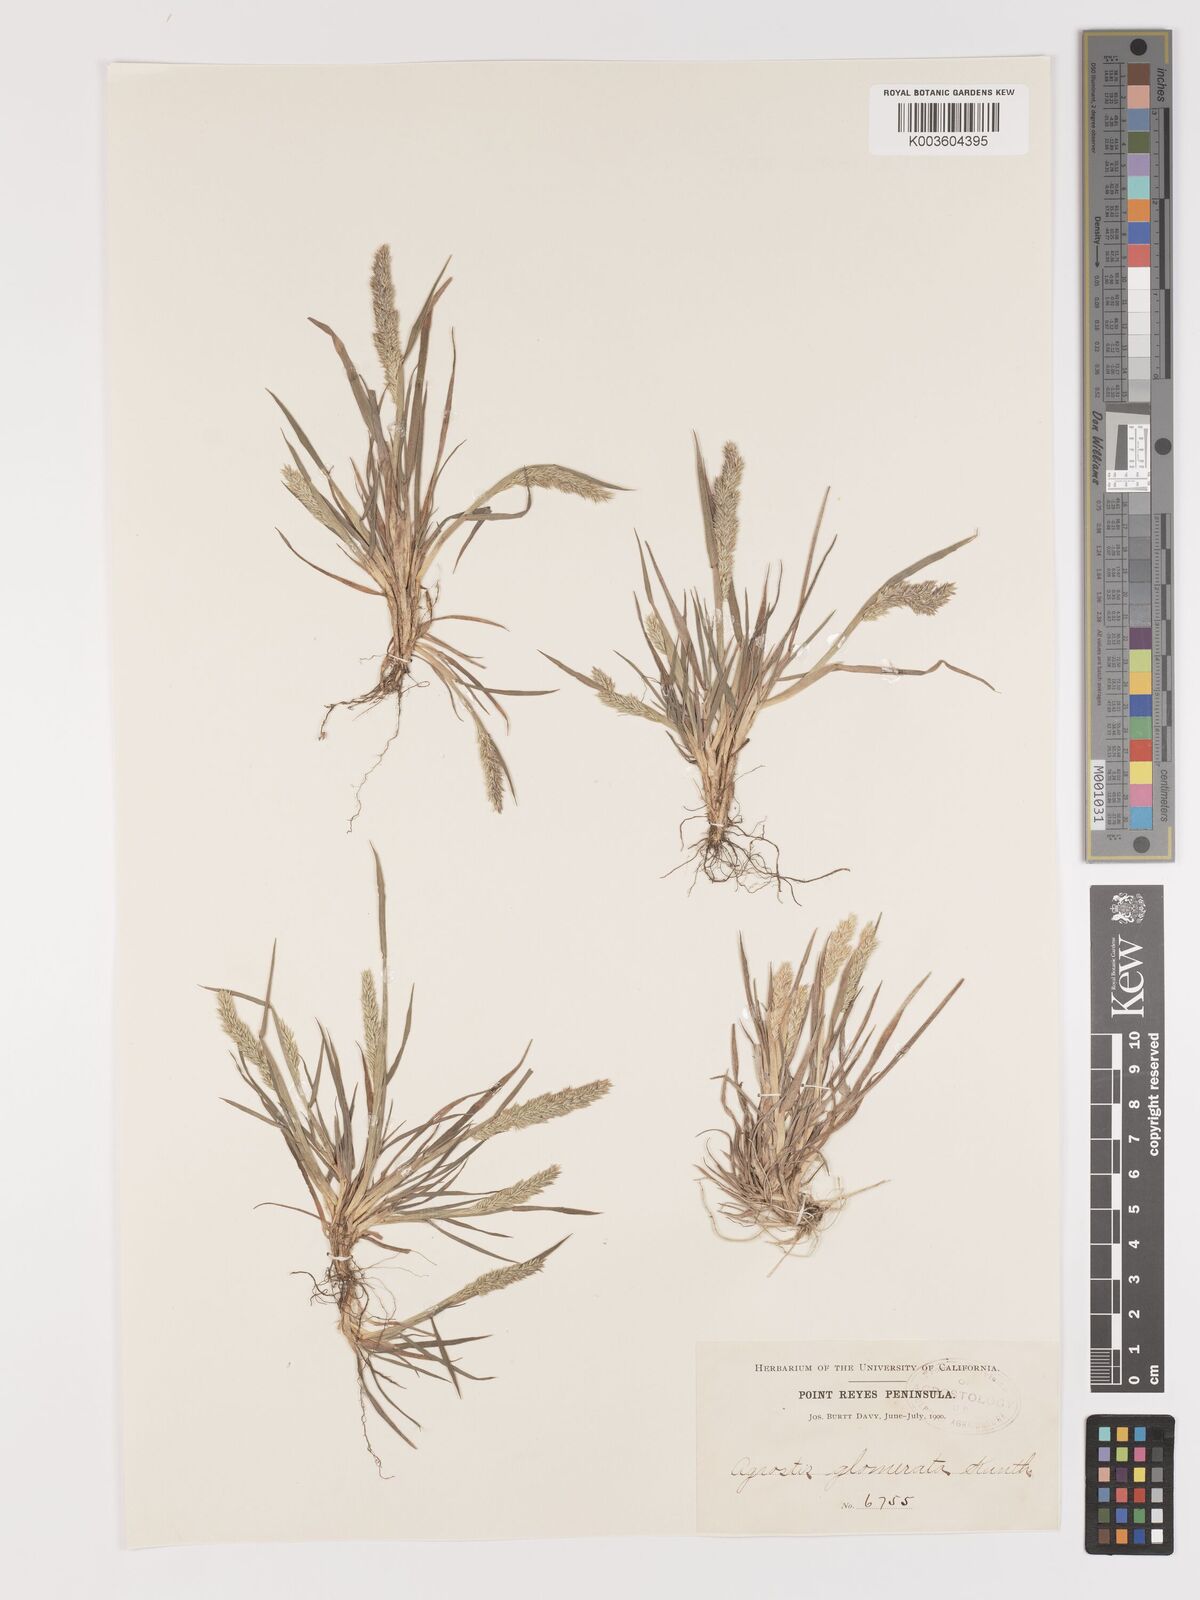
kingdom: Plantae
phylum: Tracheophyta
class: Liliopsida
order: Poales
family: Poaceae
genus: Agrostis
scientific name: Agrostis tolucensis
